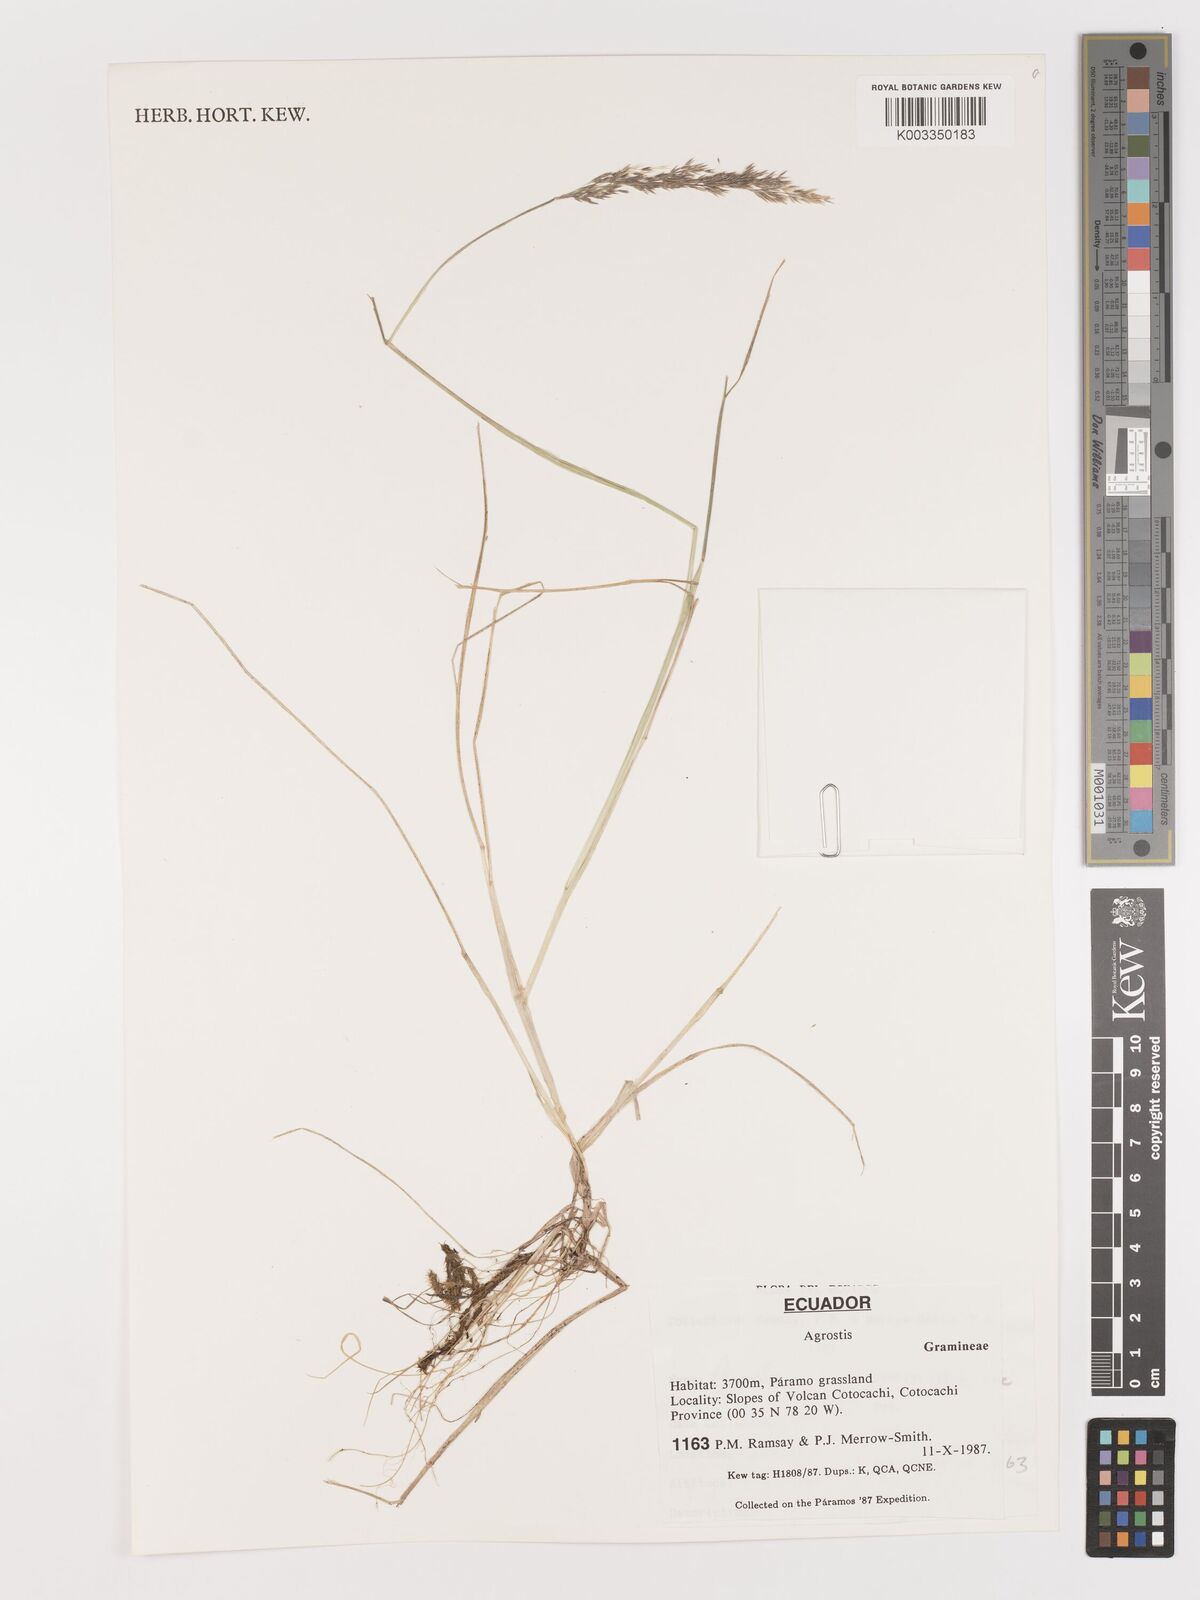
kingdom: Plantae
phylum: Tracheophyta
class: Liliopsida
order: Poales
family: Poaceae
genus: Agrostis
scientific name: Agrostis
